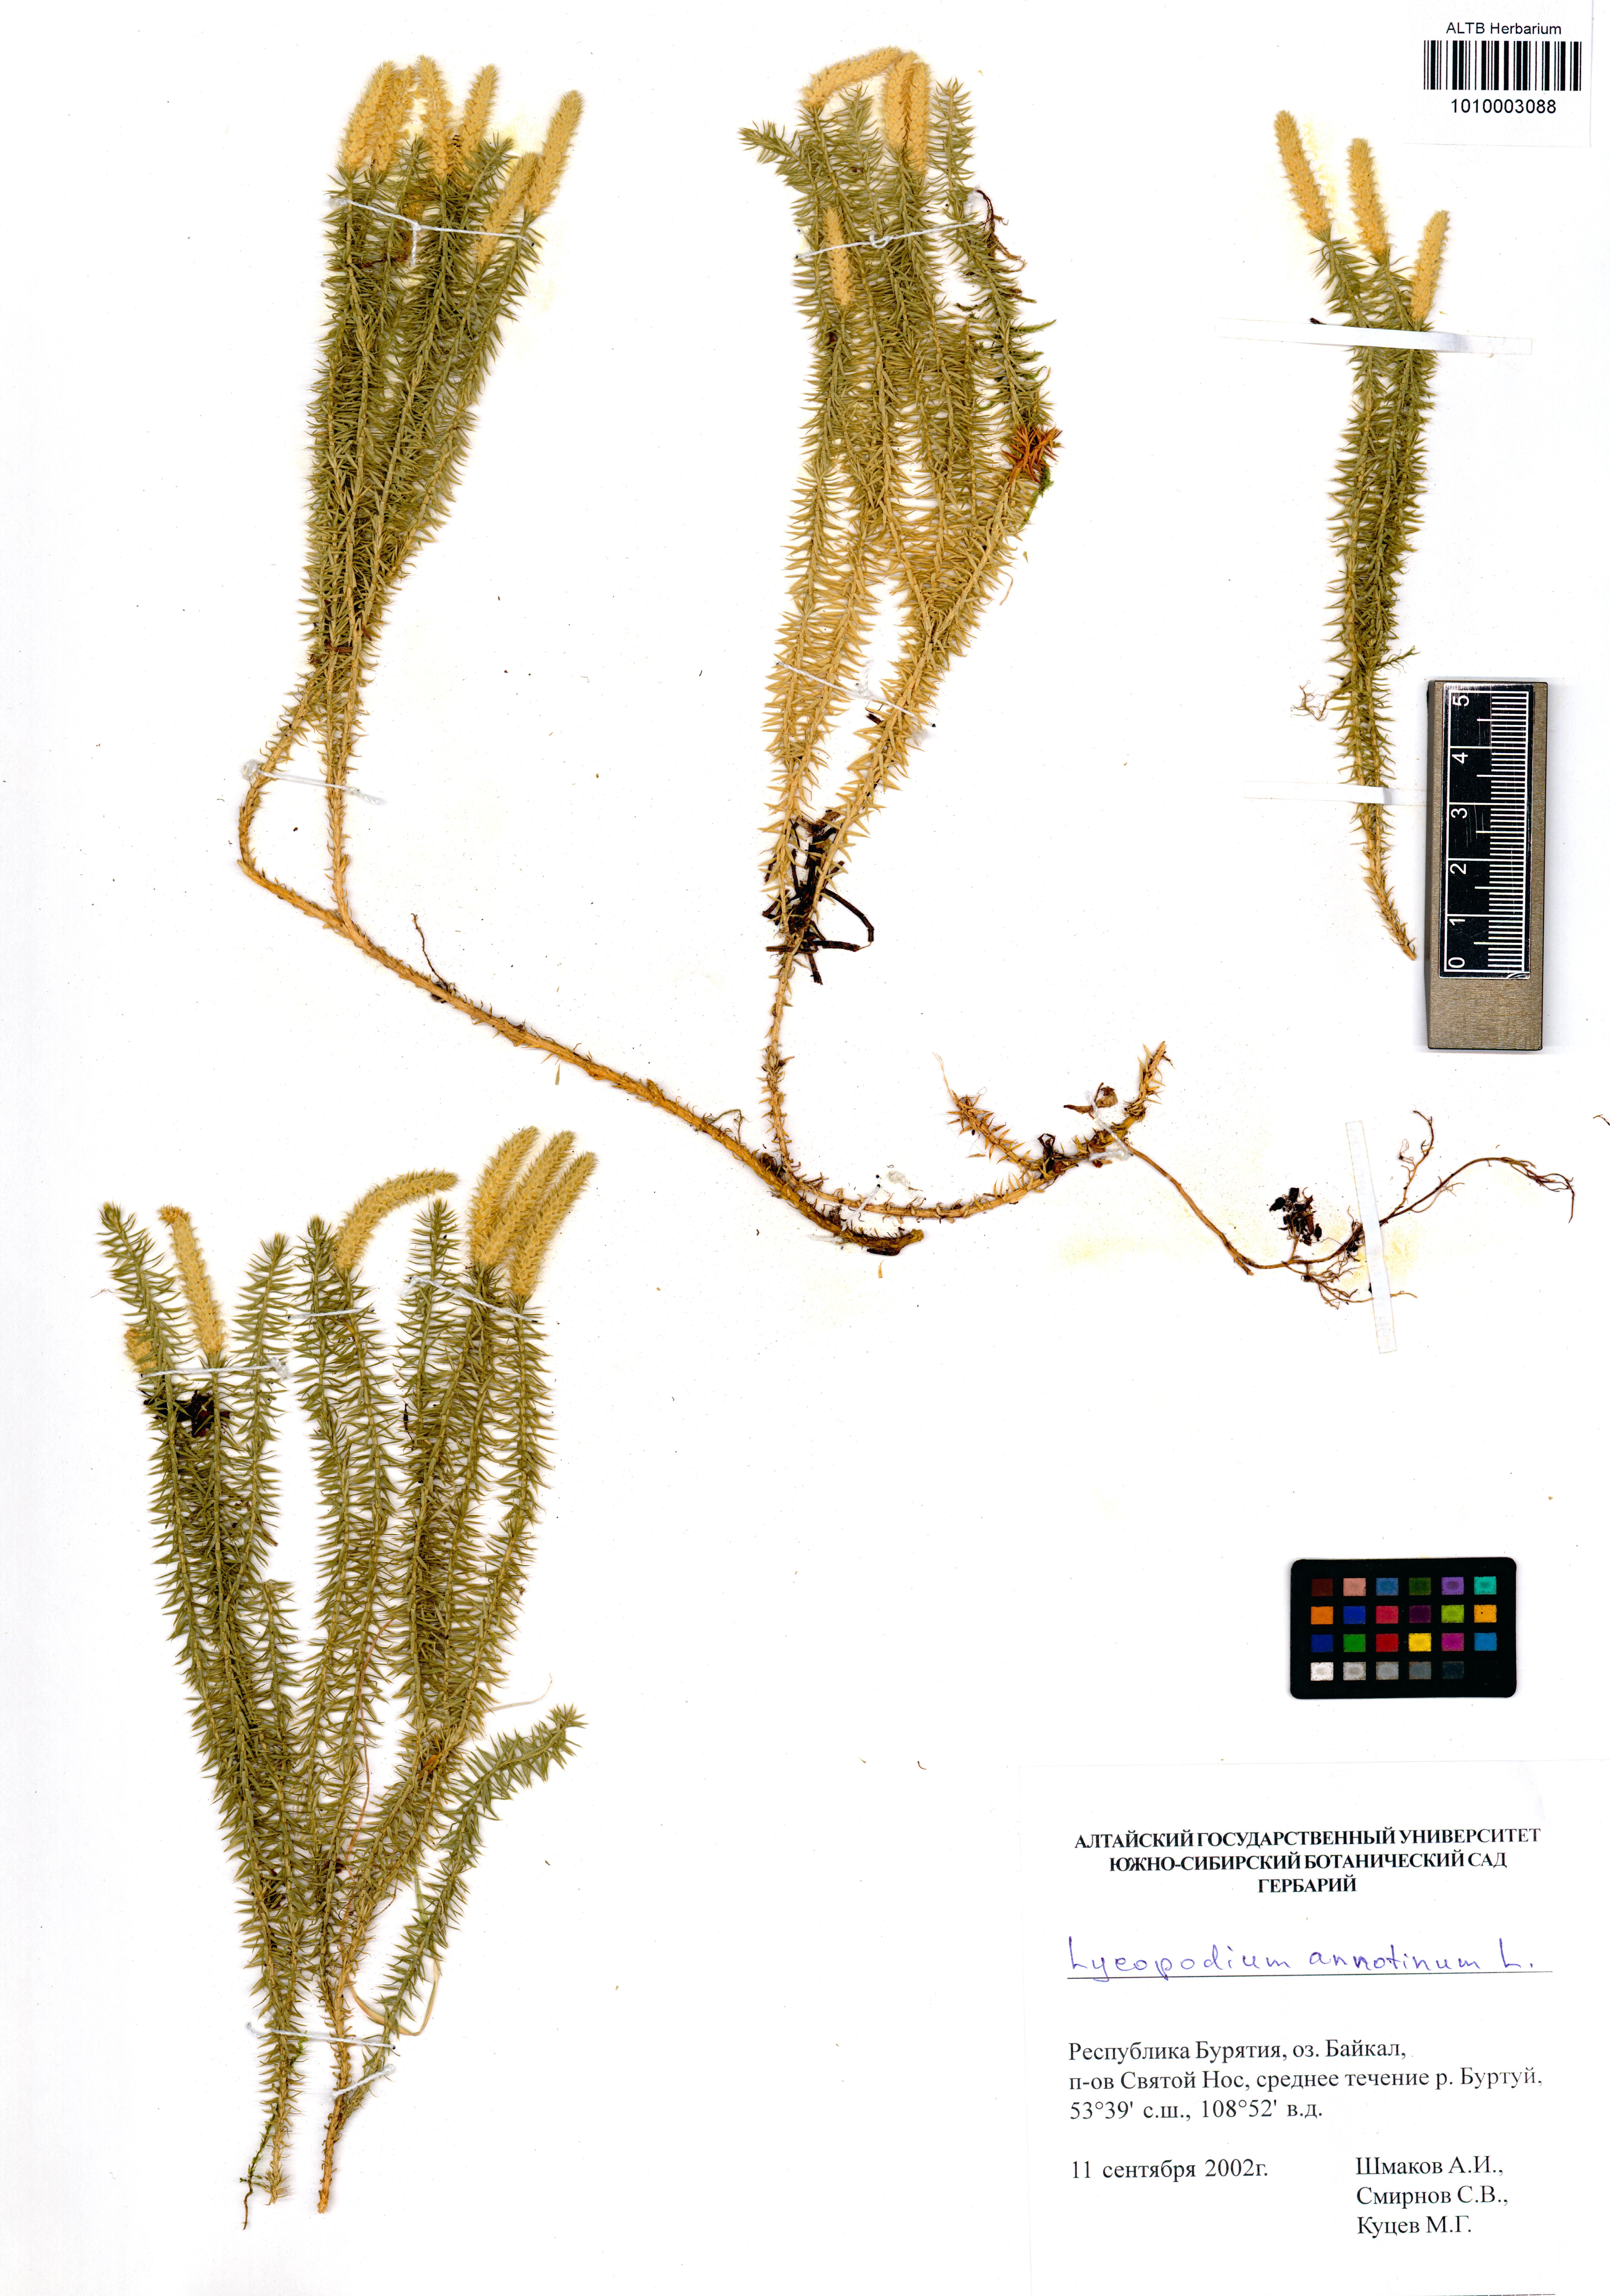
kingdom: Plantae
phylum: Tracheophyta
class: Lycopodiopsida
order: Lycopodiales
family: Lycopodiaceae
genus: Spinulum
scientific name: Spinulum annotinum
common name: Interrupted club-moss
